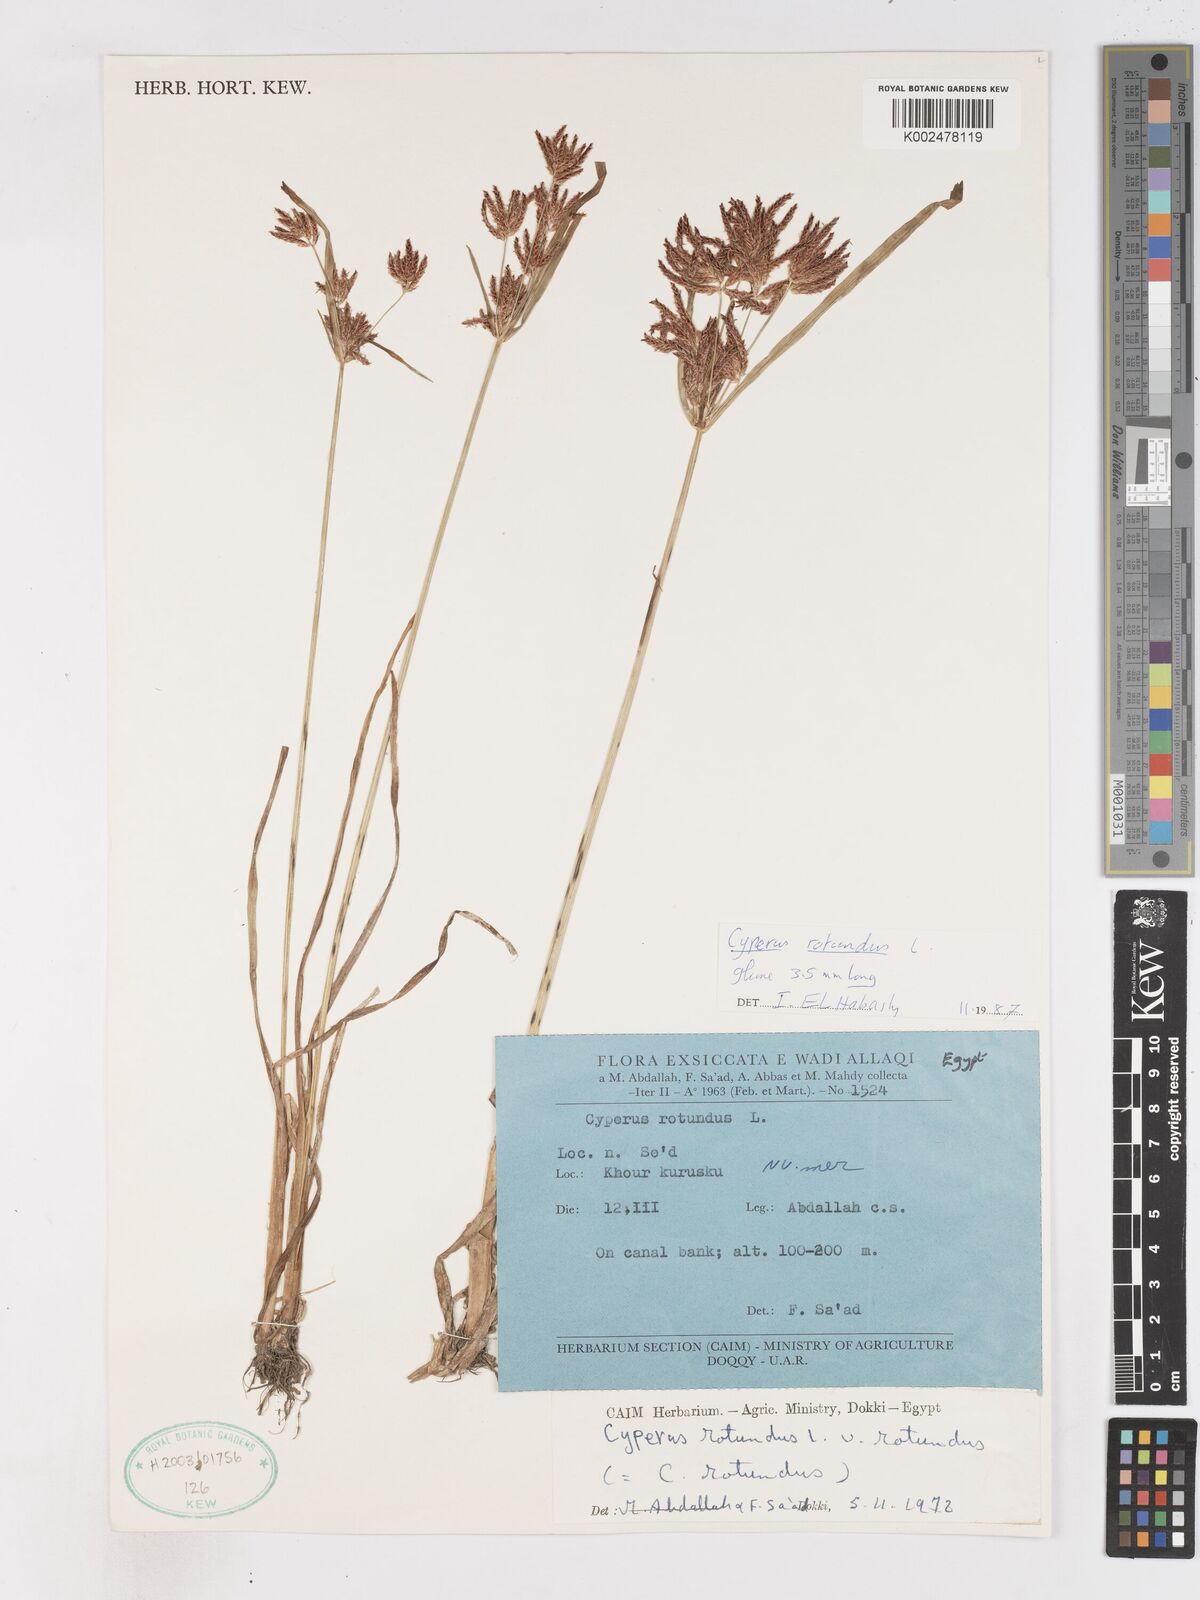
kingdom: Plantae
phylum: Tracheophyta
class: Liliopsida
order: Poales
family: Cyperaceae
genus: Cyperus
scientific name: Cyperus rotundus
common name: Nutgrass
